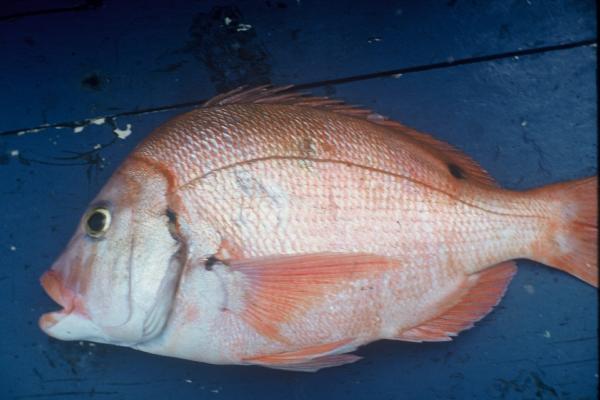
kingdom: Animalia
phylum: Chordata
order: Perciformes
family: Sparidae
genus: Chrysoblephus
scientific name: Chrysoblephus cristiceps
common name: Dageraad
